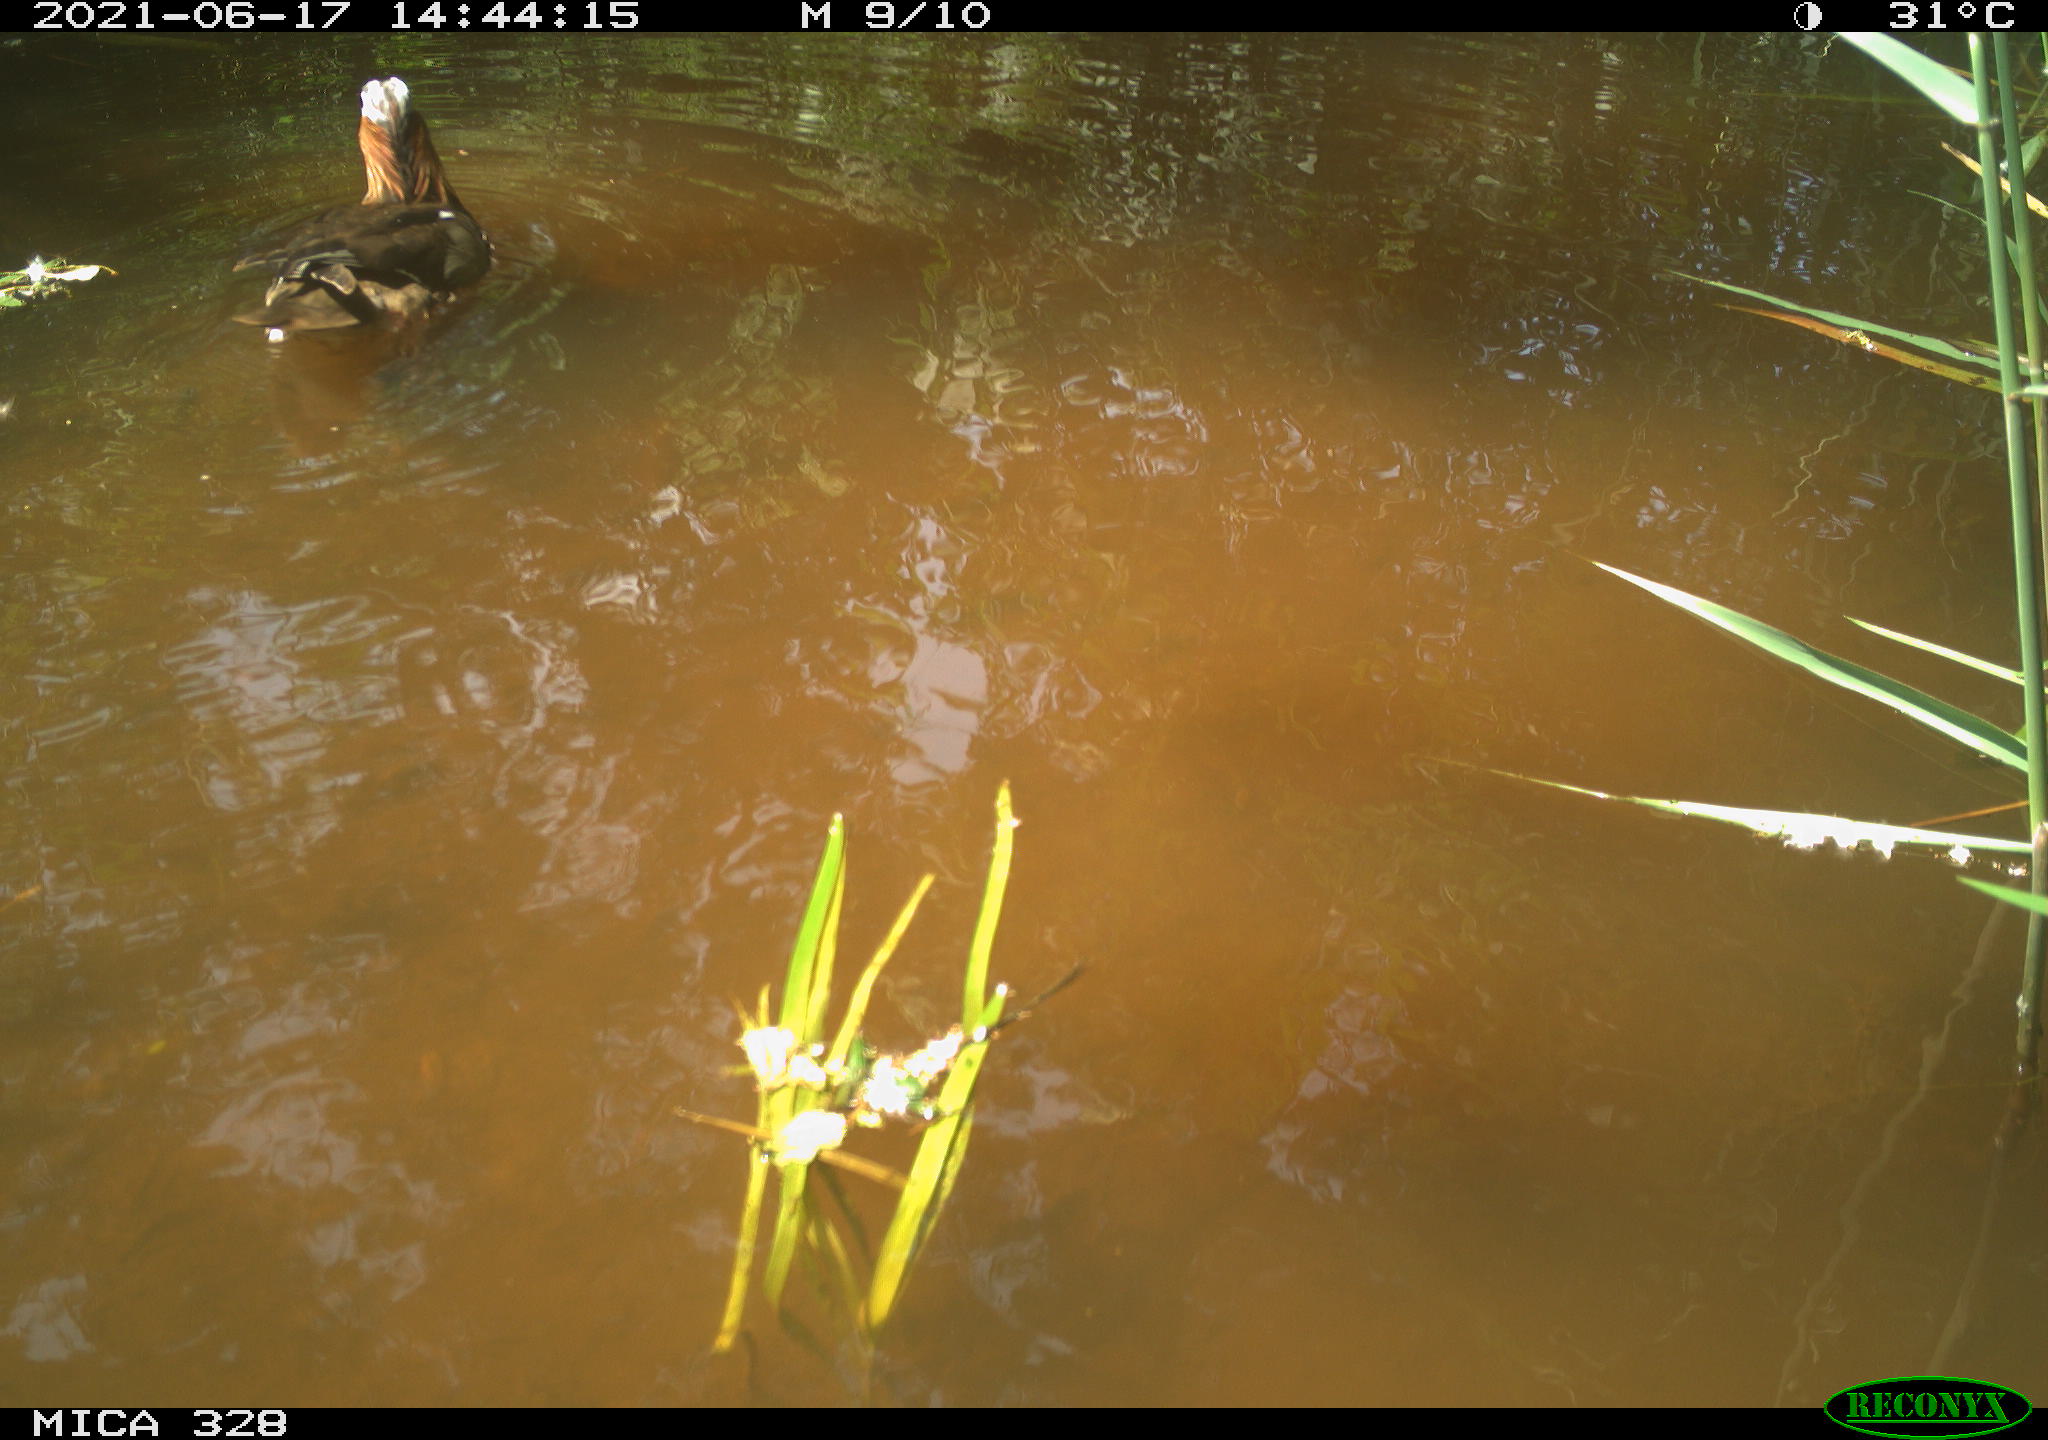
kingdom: Animalia
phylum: Chordata
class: Aves
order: Anseriformes
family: Anatidae
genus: Aix
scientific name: Aix galericulata
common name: Mandarin duck
